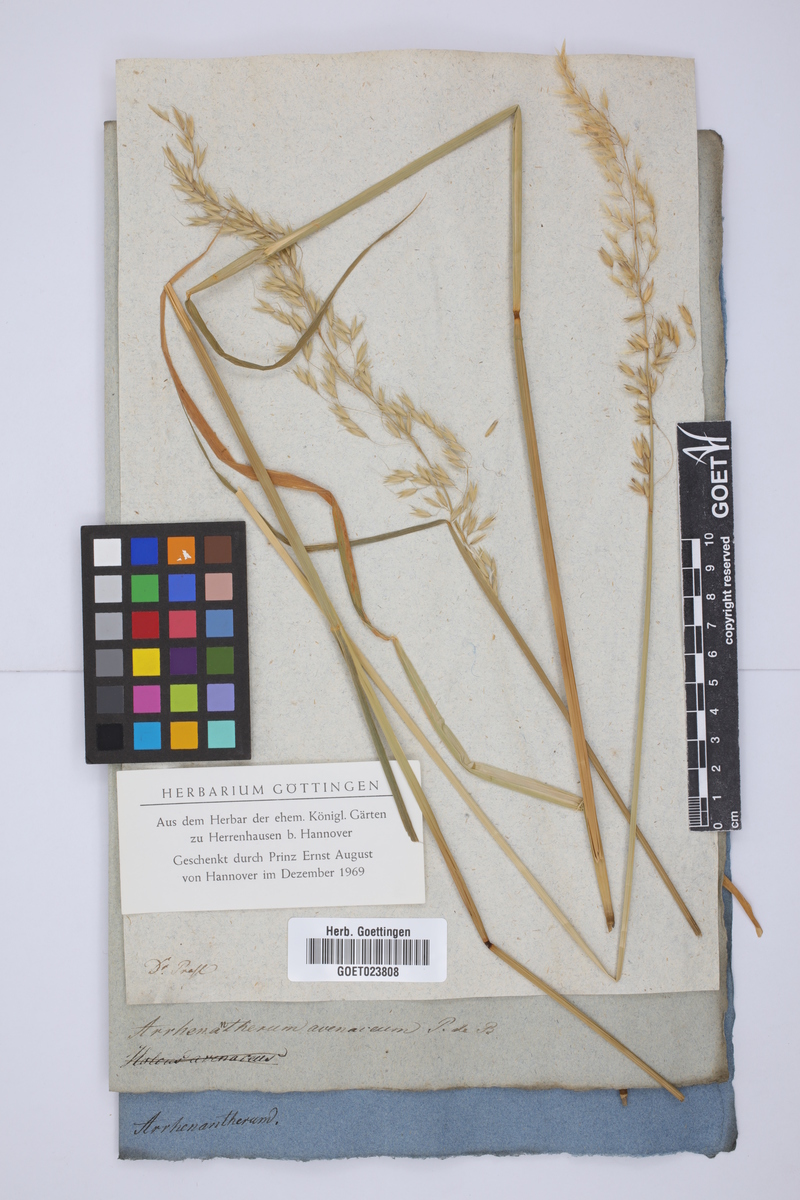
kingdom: Plantae
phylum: Tracheophyta
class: Liliopsida
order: Poales
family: Poaceae
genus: Arrhenatherum
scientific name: Arrhenatherum elatius
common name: Tall oatgrass
